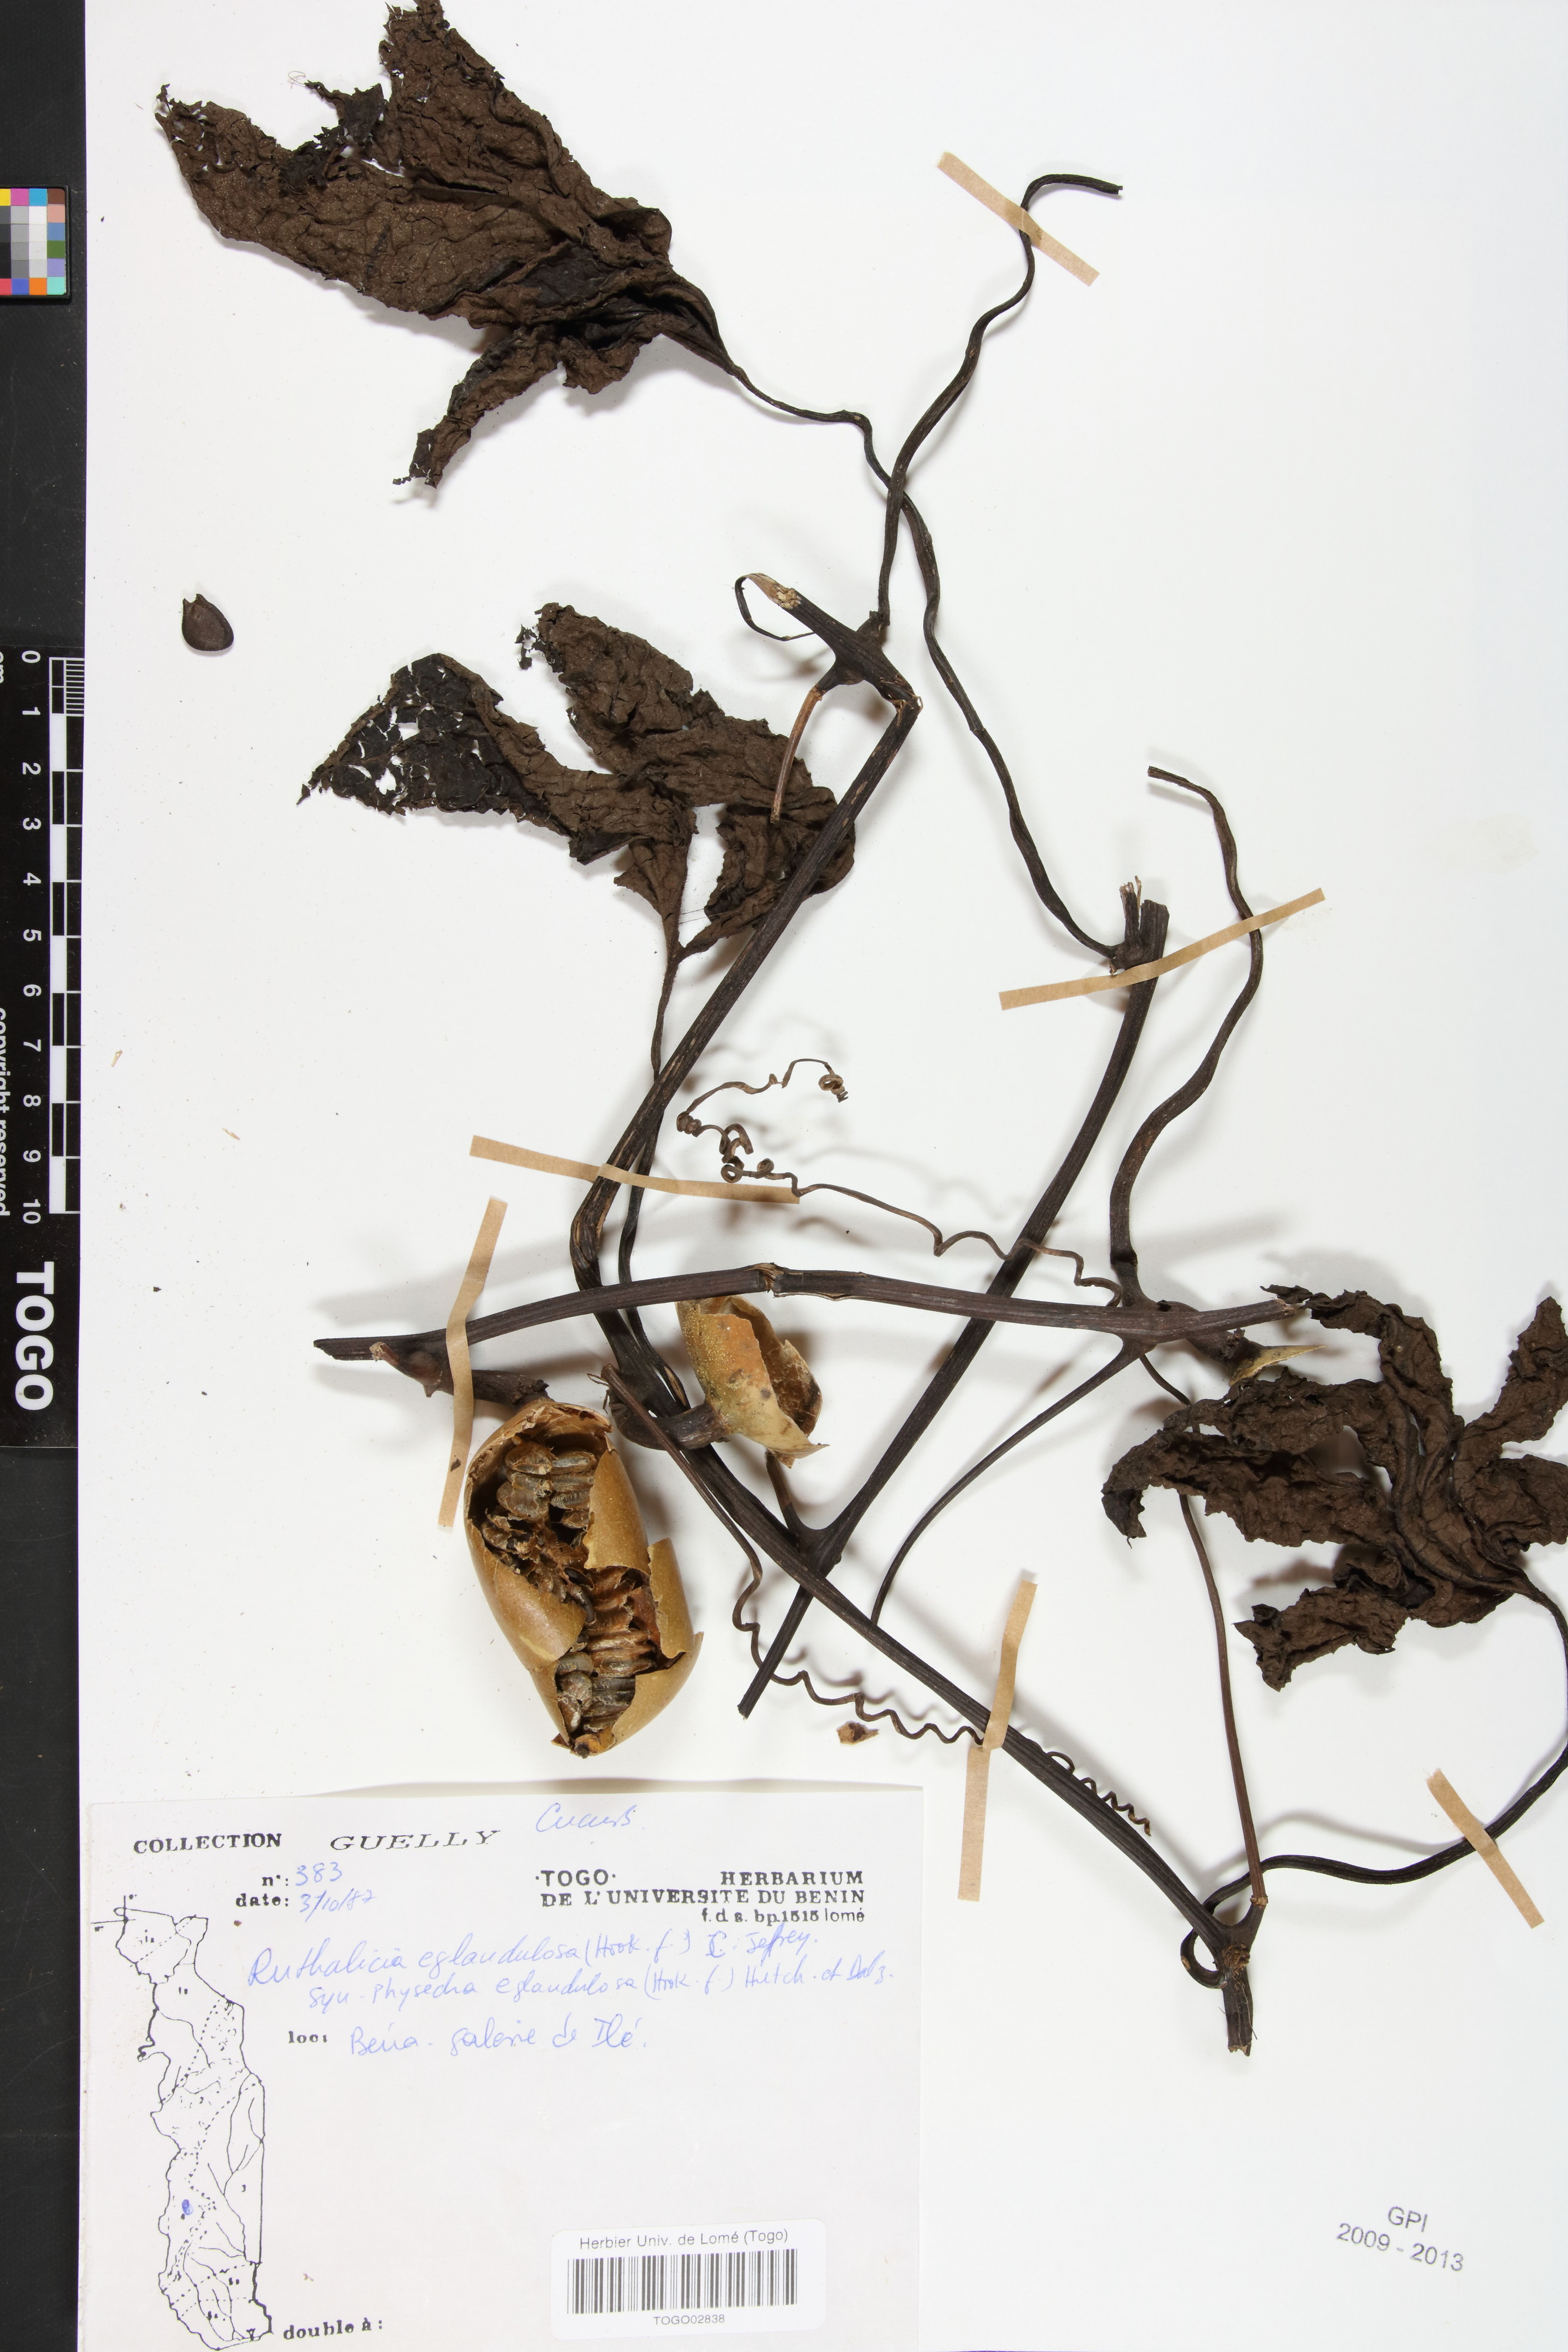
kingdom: Plantae
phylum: Tracheophyta
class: Magnoliopsida
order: Cucurbitales
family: Cucurbitaceae
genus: Ruthalicia
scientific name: Ruthalicia eglandulosa
